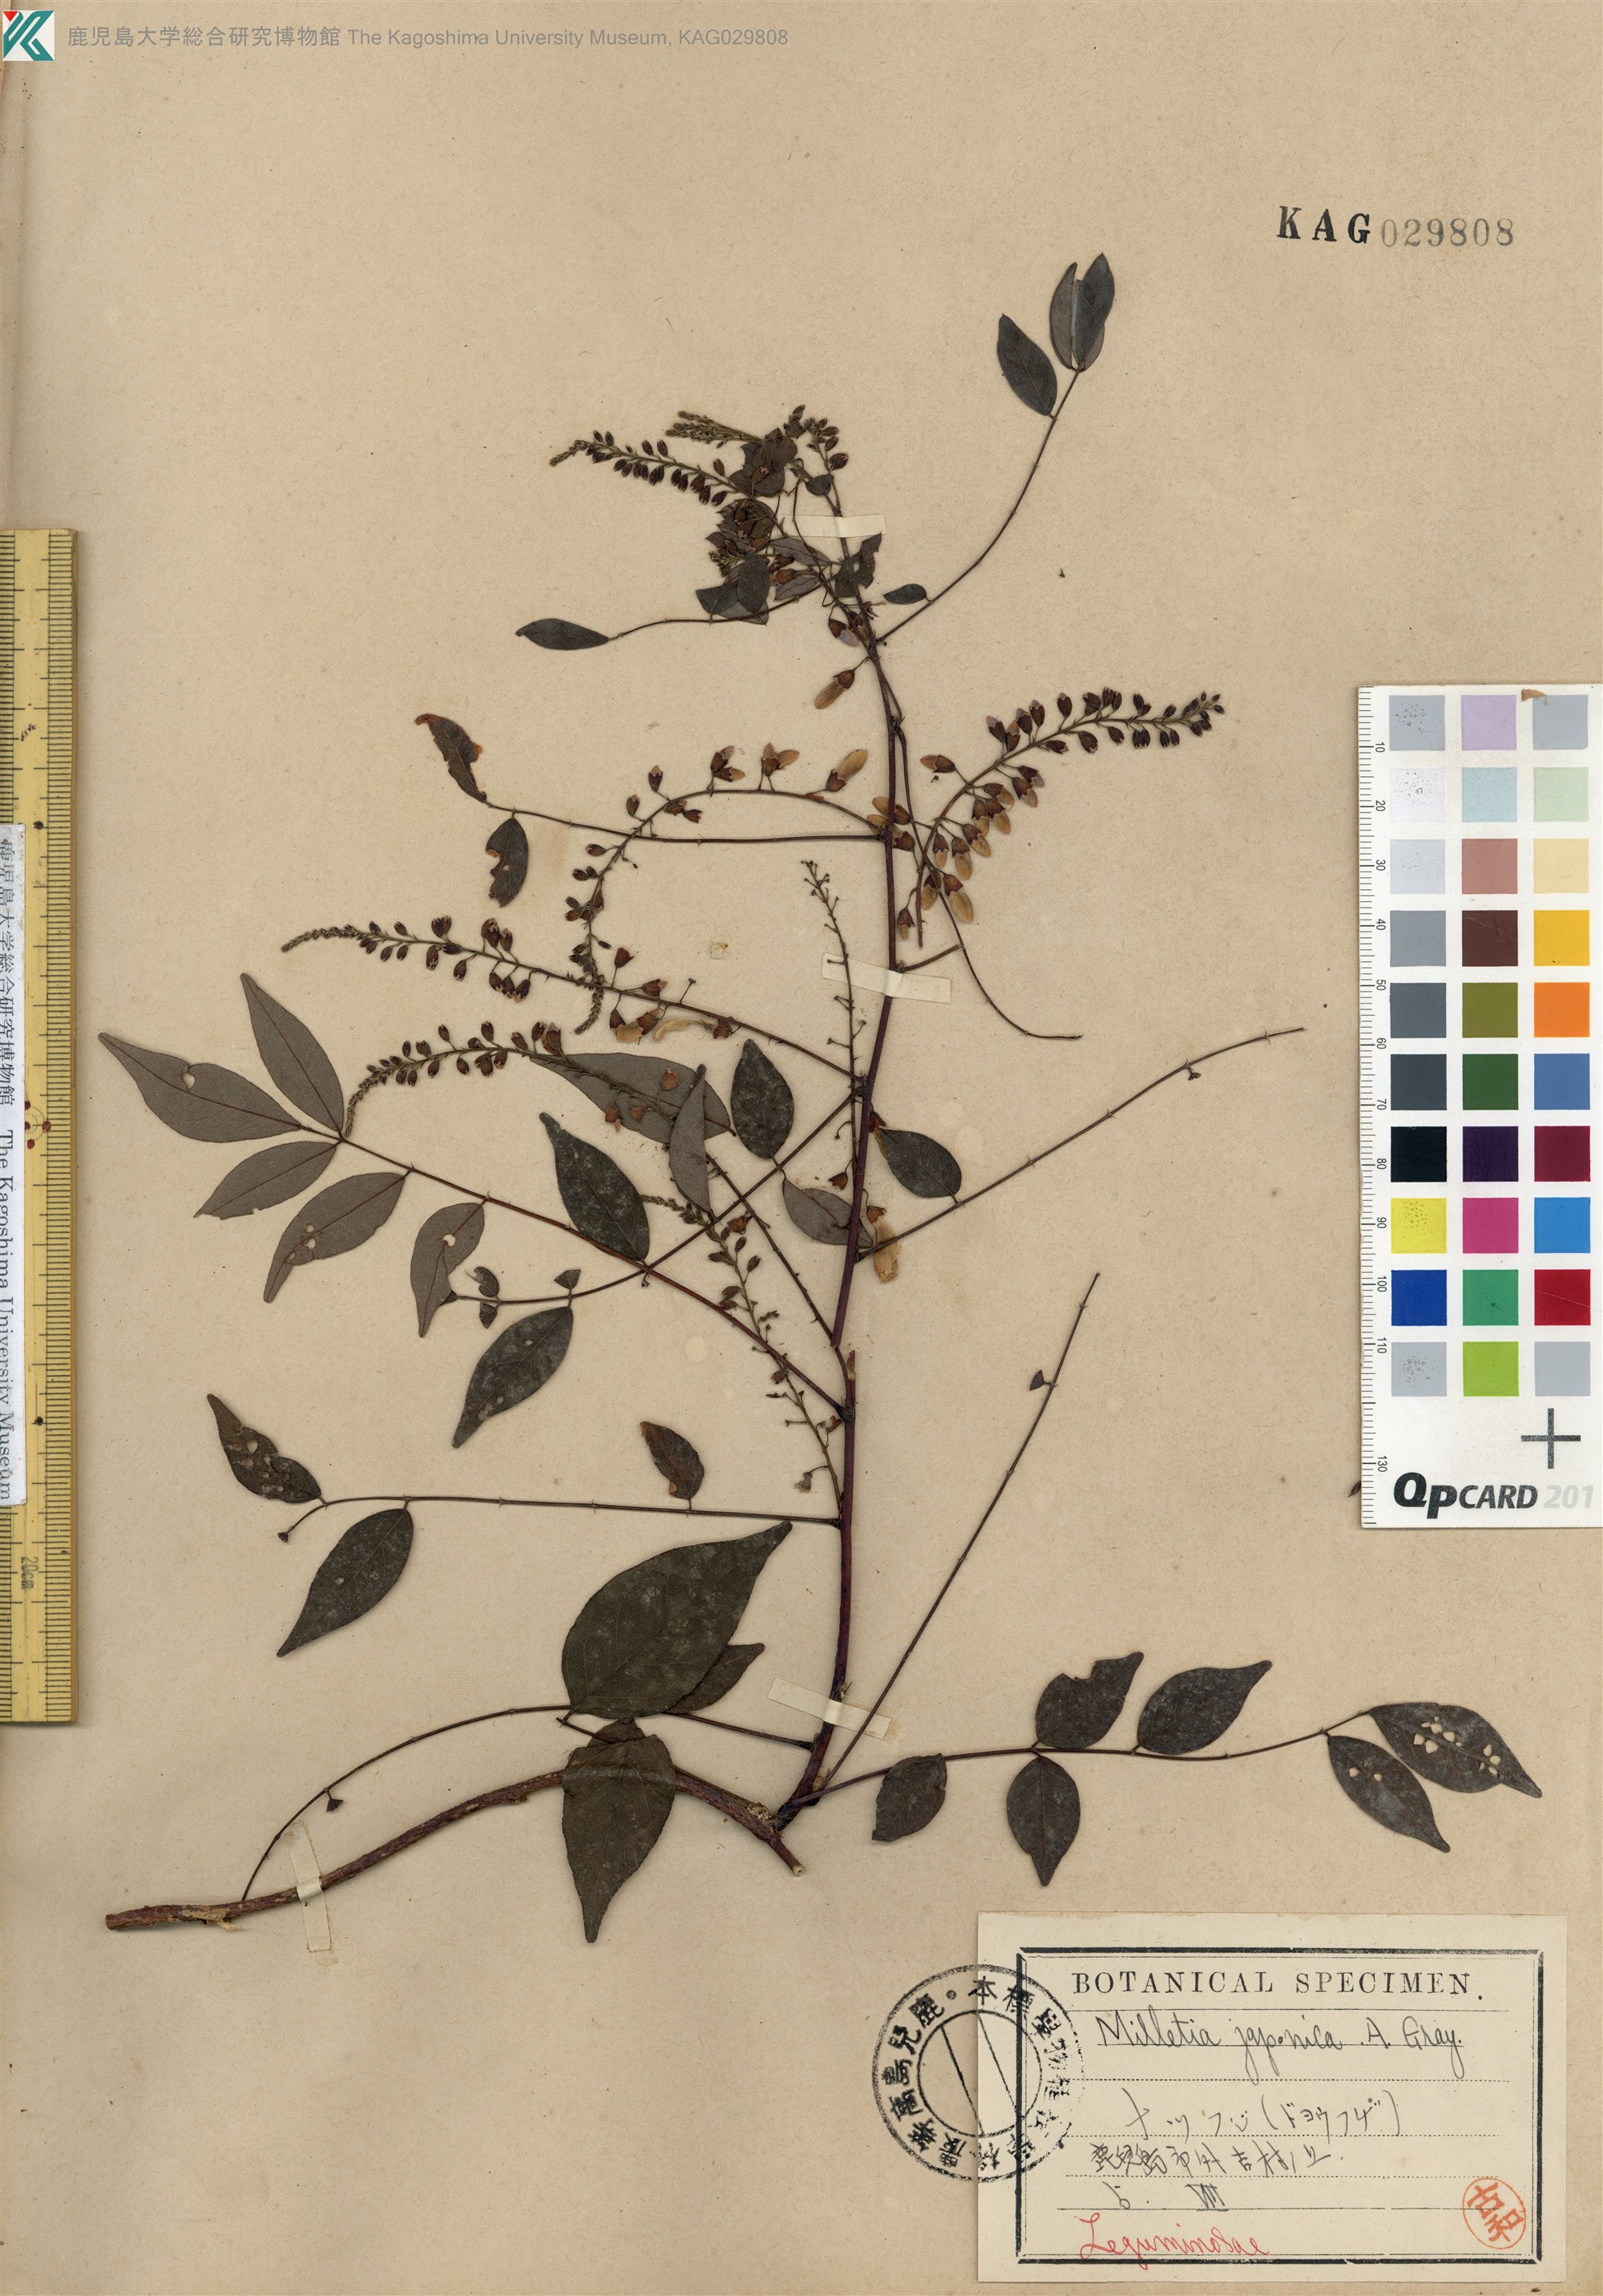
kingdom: Plantae
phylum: Tracheophyta
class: Magnoliopsida
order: Fabales
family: Fabaceae
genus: Wisteriopsis
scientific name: Wisteriopsis japonica
